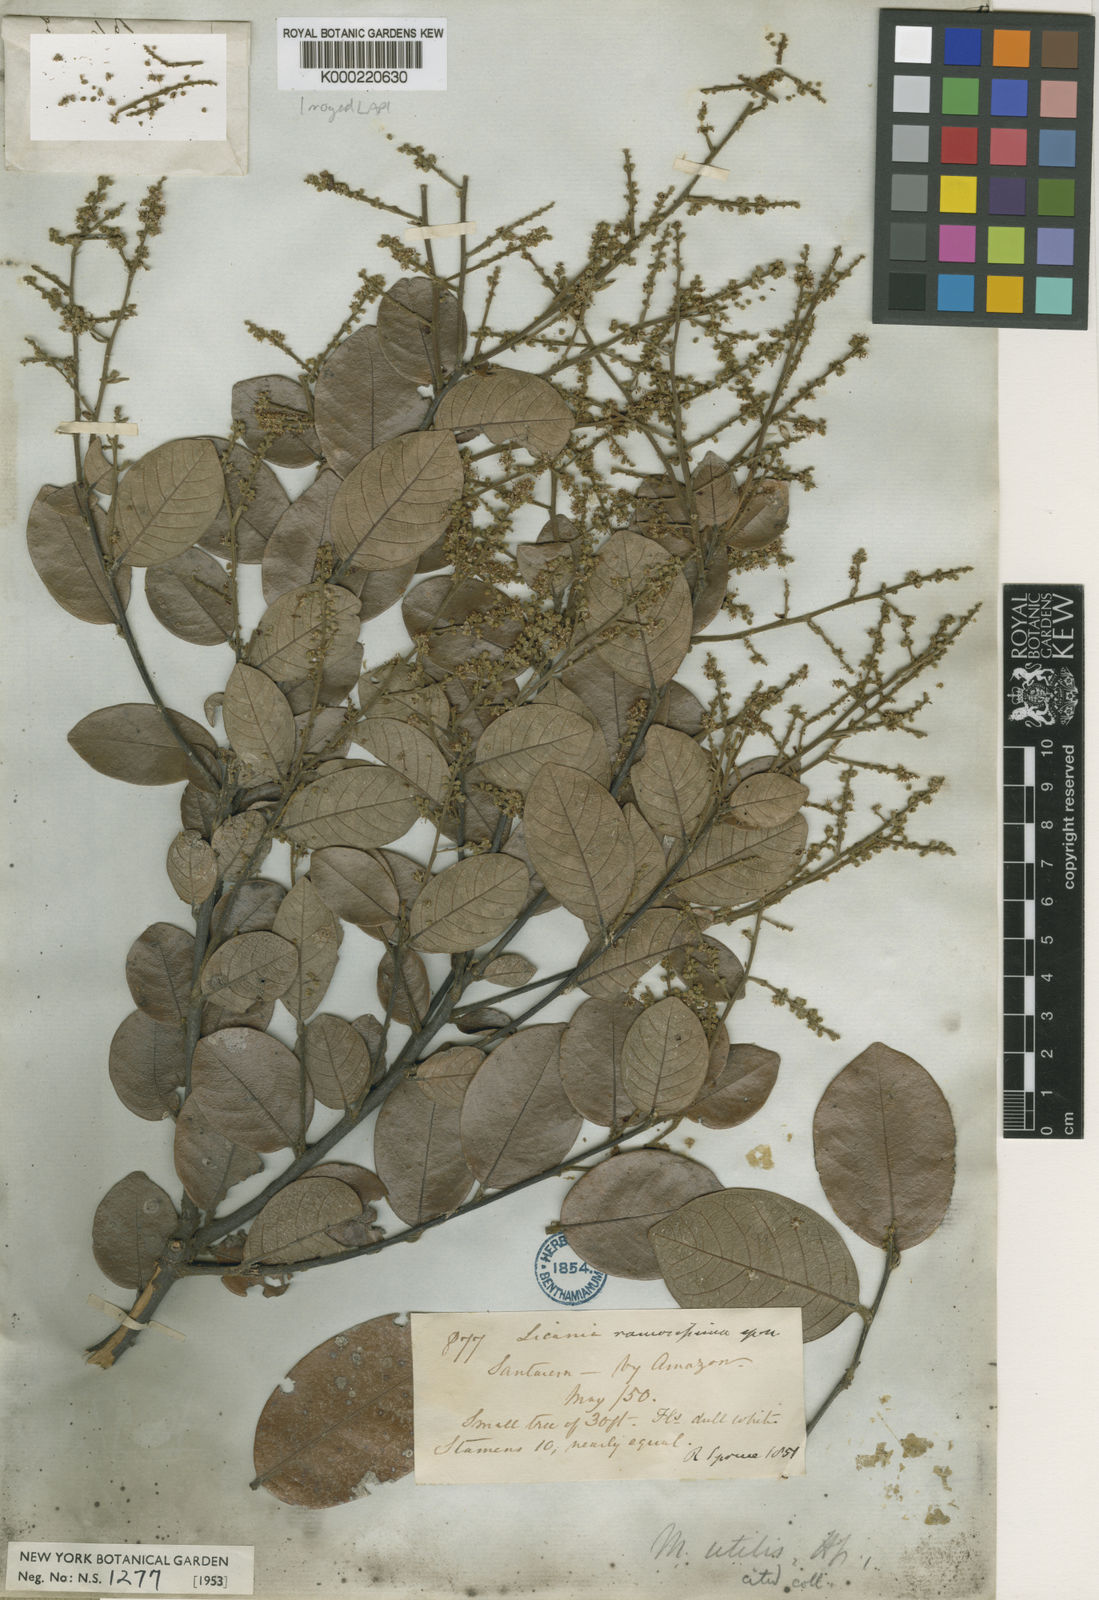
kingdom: Plantae
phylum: Tracheophyta
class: Magnoliopsida
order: Malpighiales
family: Chrysobalanaceae
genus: Leptobalanus
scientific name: Leptobalanus octandrus
